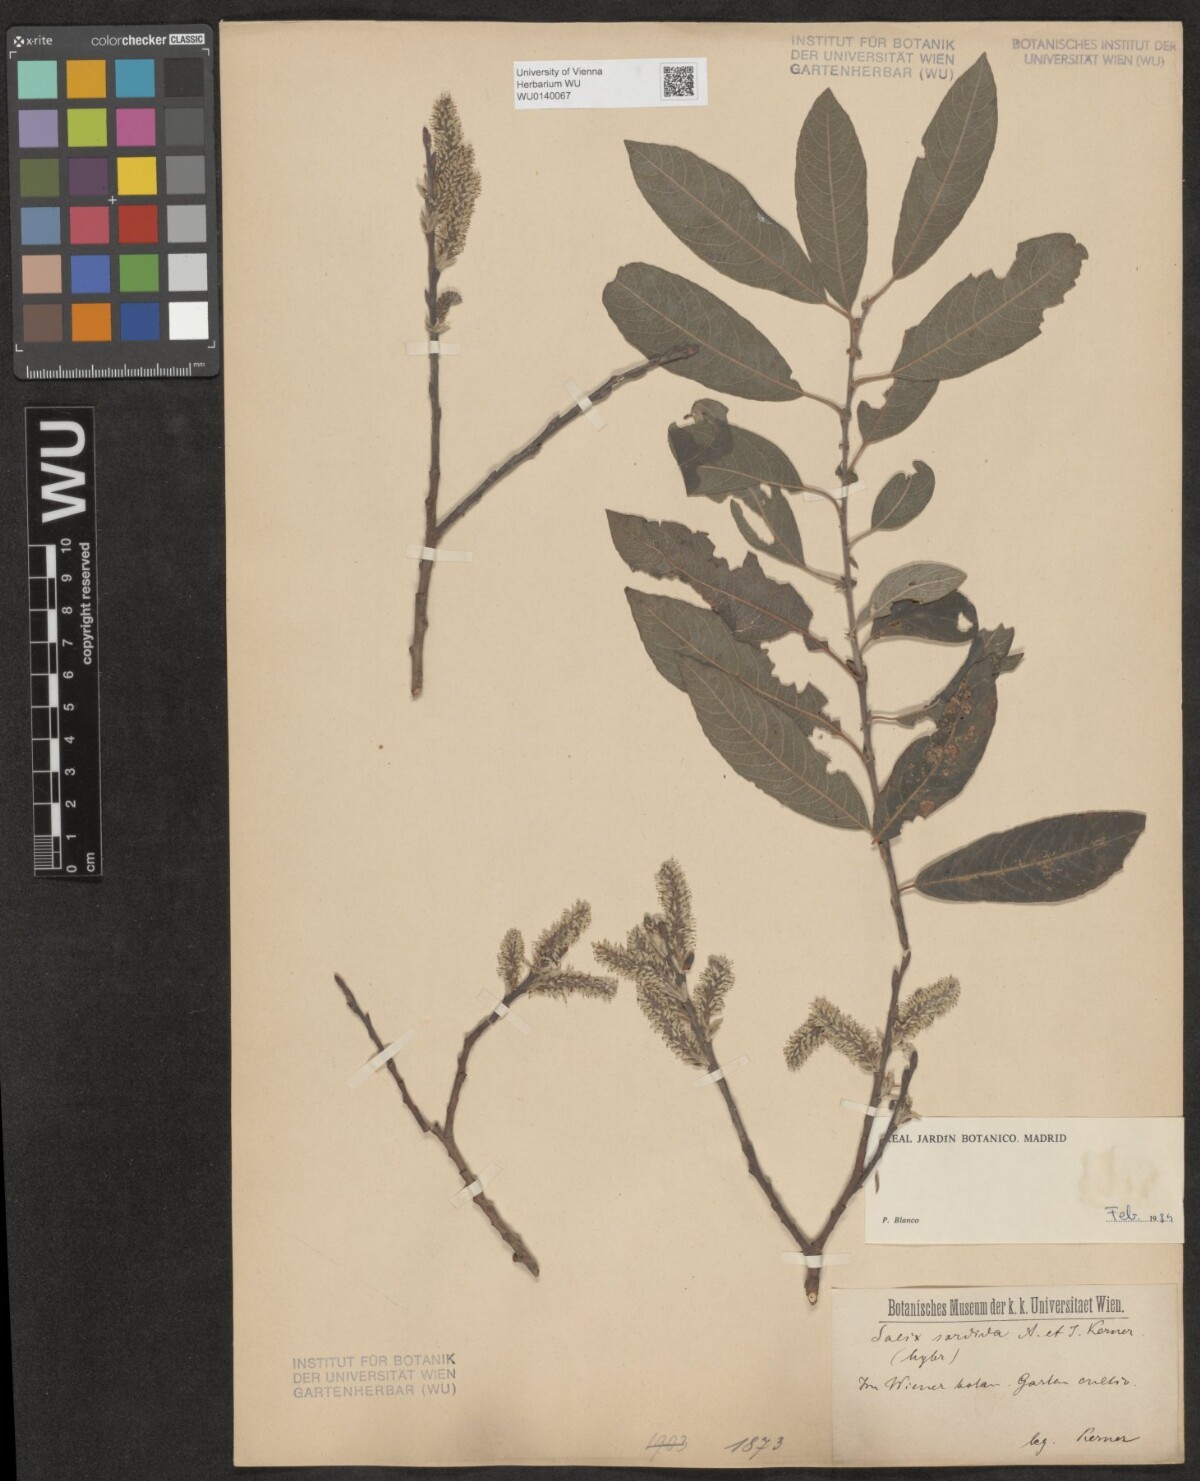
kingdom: Plantae
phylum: Tracheophyta
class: Magnoliopsida
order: Malpighiales
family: Salicaceae
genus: Salix
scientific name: Salix sordida
